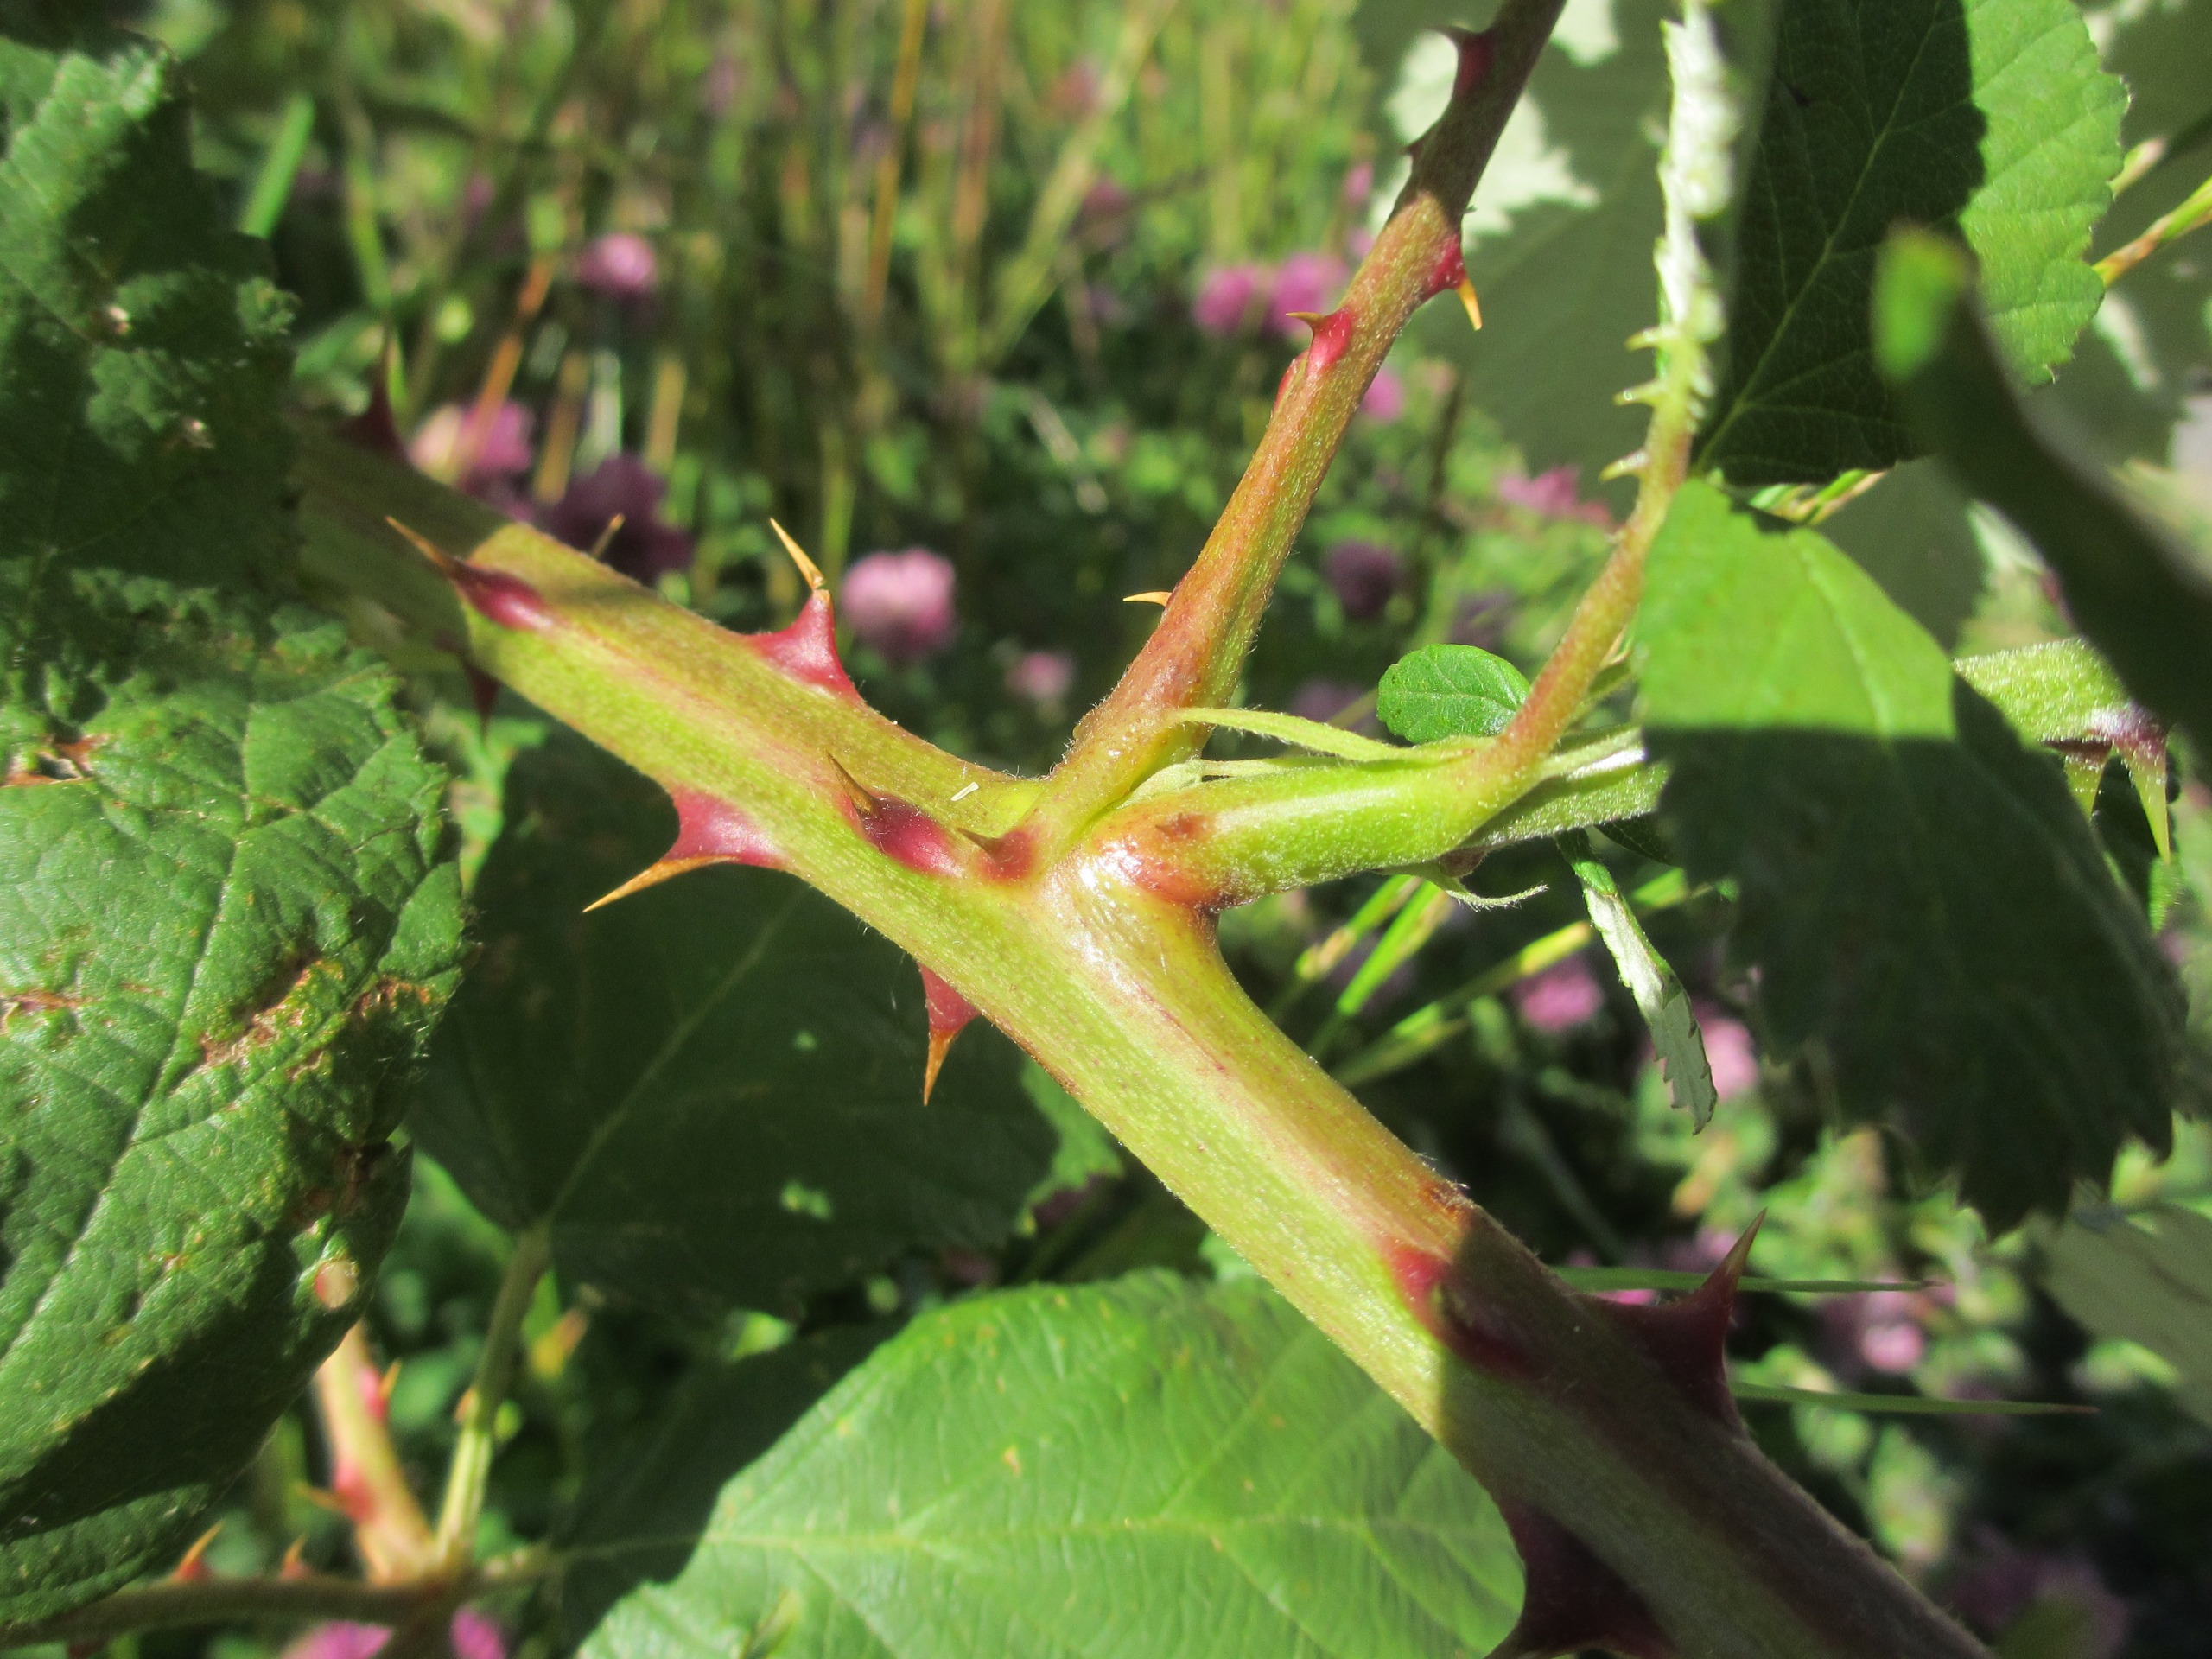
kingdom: Plantae
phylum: Tracheophyta
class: Magnoliopsida
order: Rosales
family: Rosaceae
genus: Rubus
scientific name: Rubus armeniacus
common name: Armensk brombær
